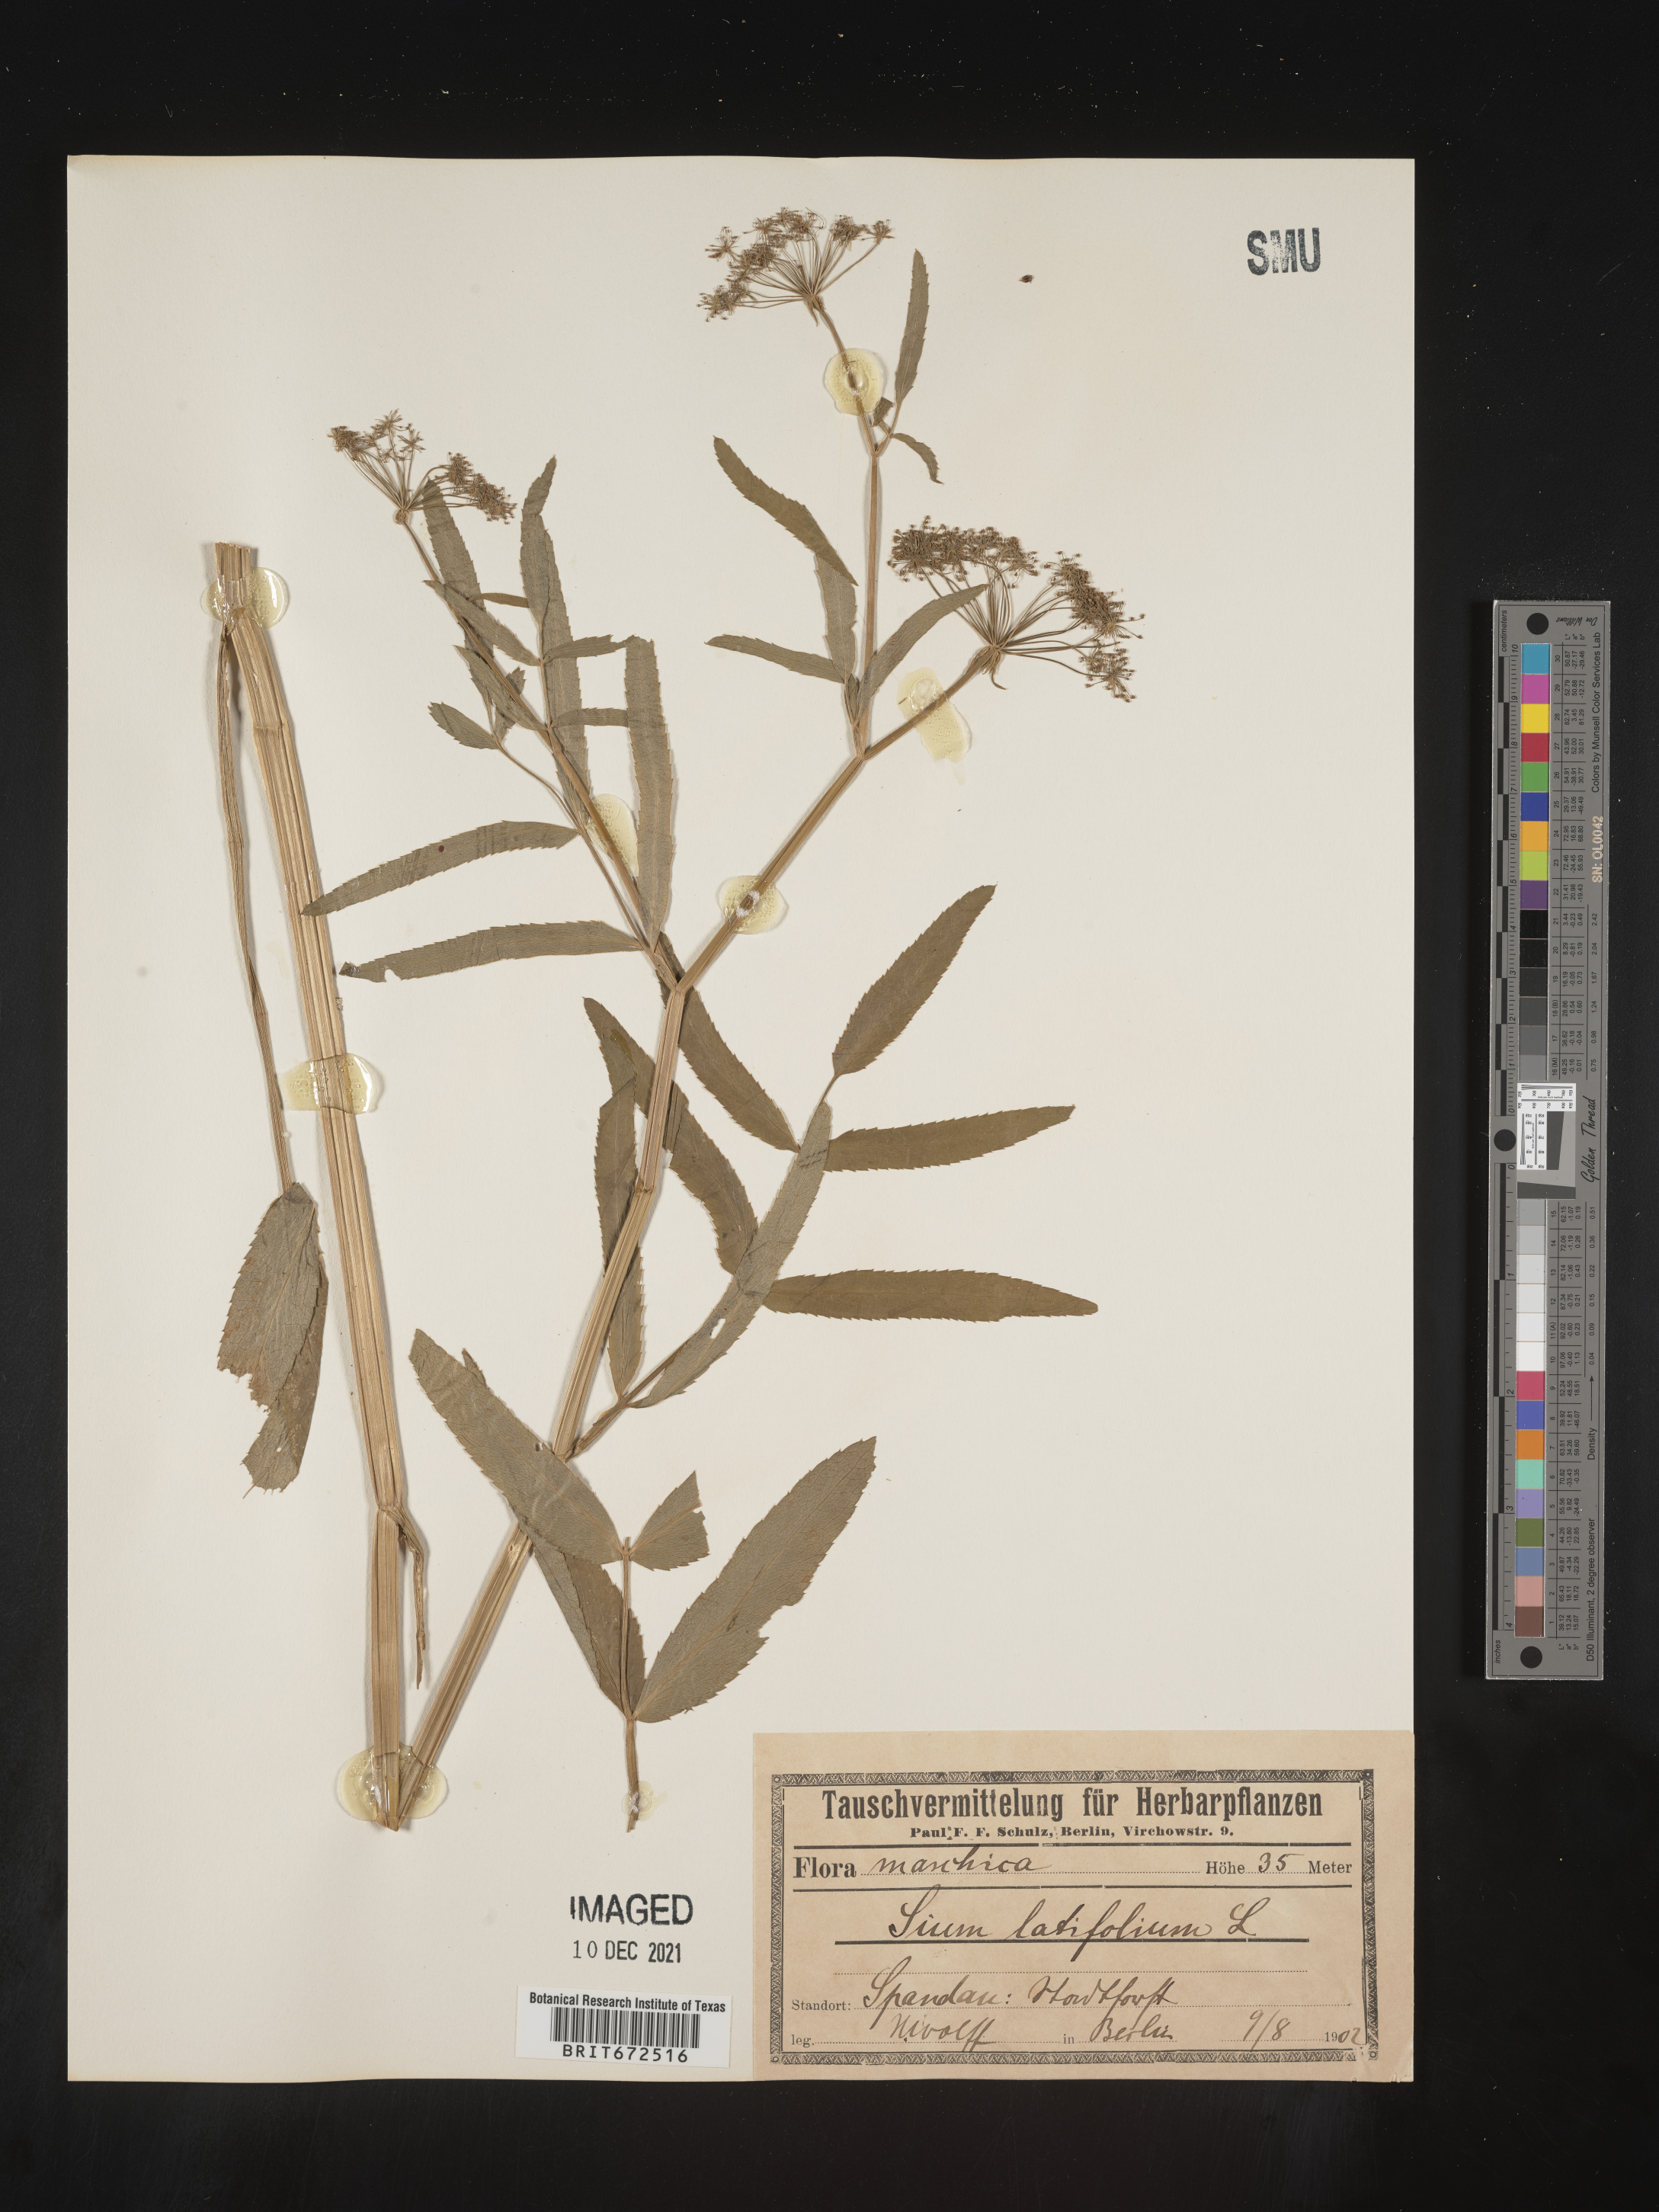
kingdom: Plantae
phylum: Tracheophyta
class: Magnoliopsida
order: Apiales
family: Apiaceae
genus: Sium
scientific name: Sium
